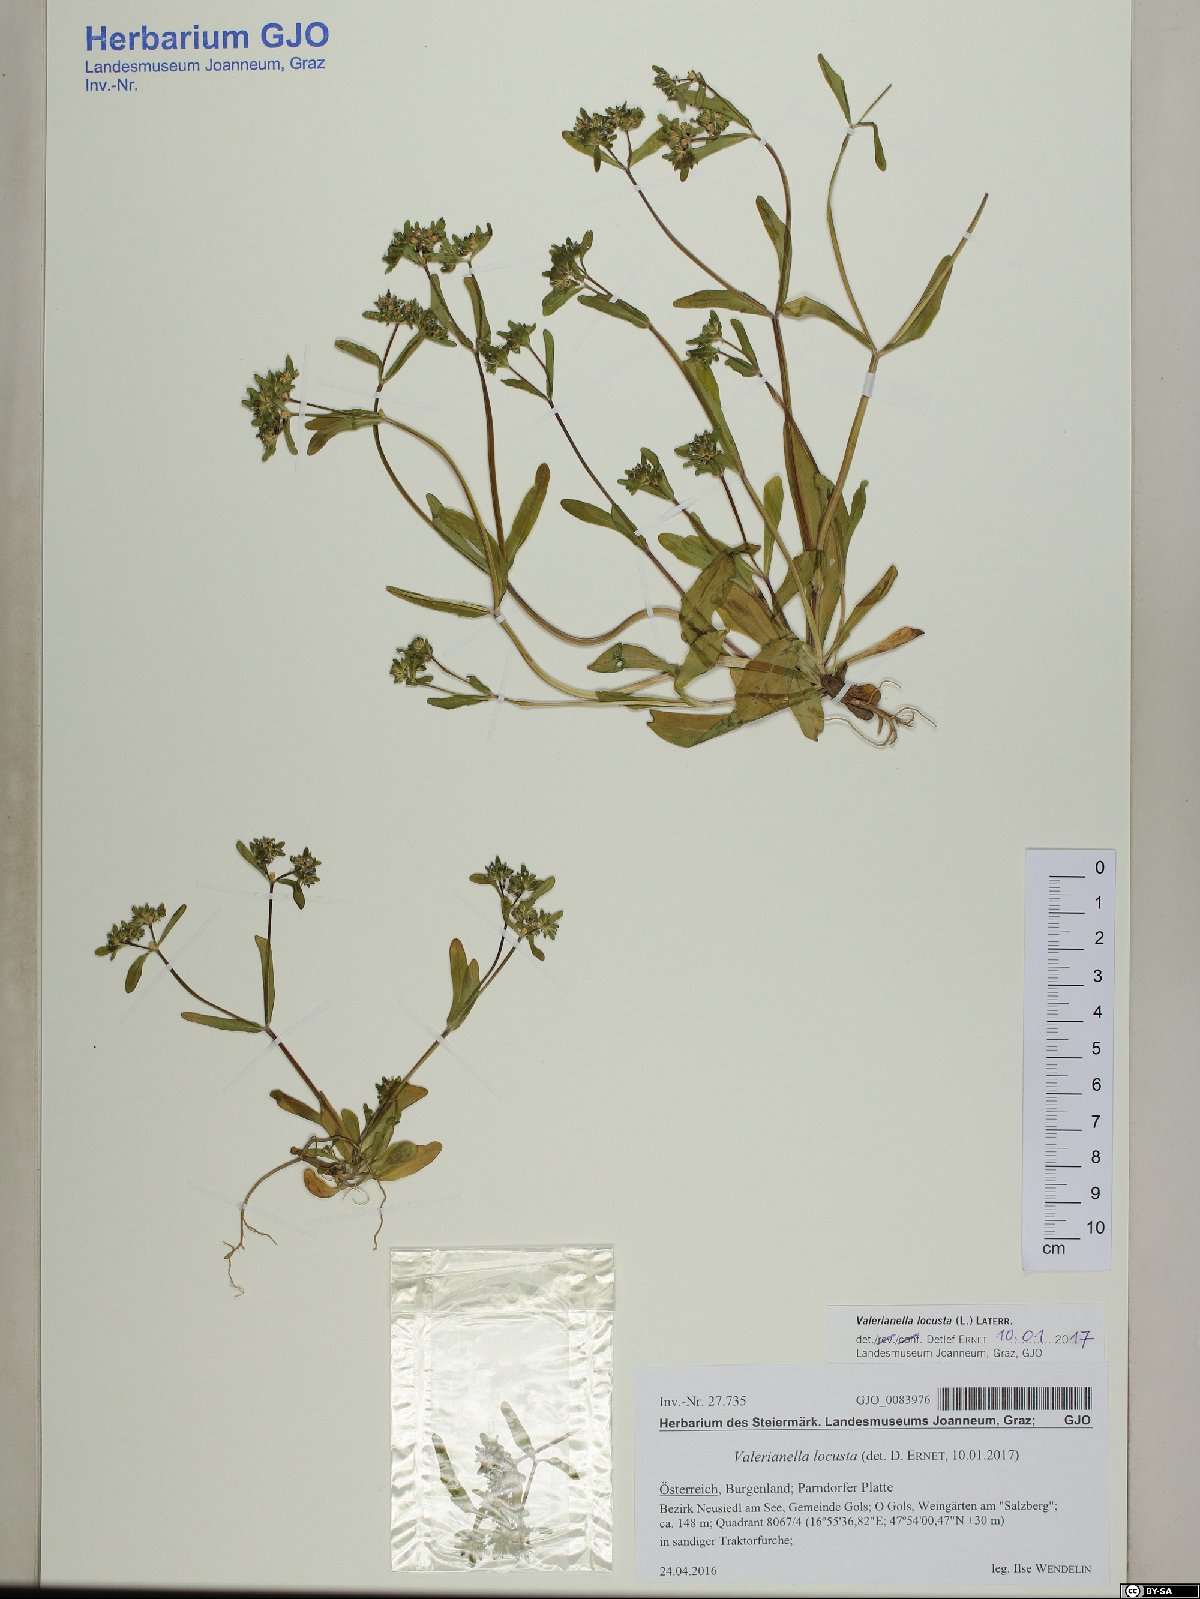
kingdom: Plantae
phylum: Tracheophyta
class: Magnoliopsida
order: Dipsacales
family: Caprifoliaceae
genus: Valerianella
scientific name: Valerianella locusta
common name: Common cornsalad
